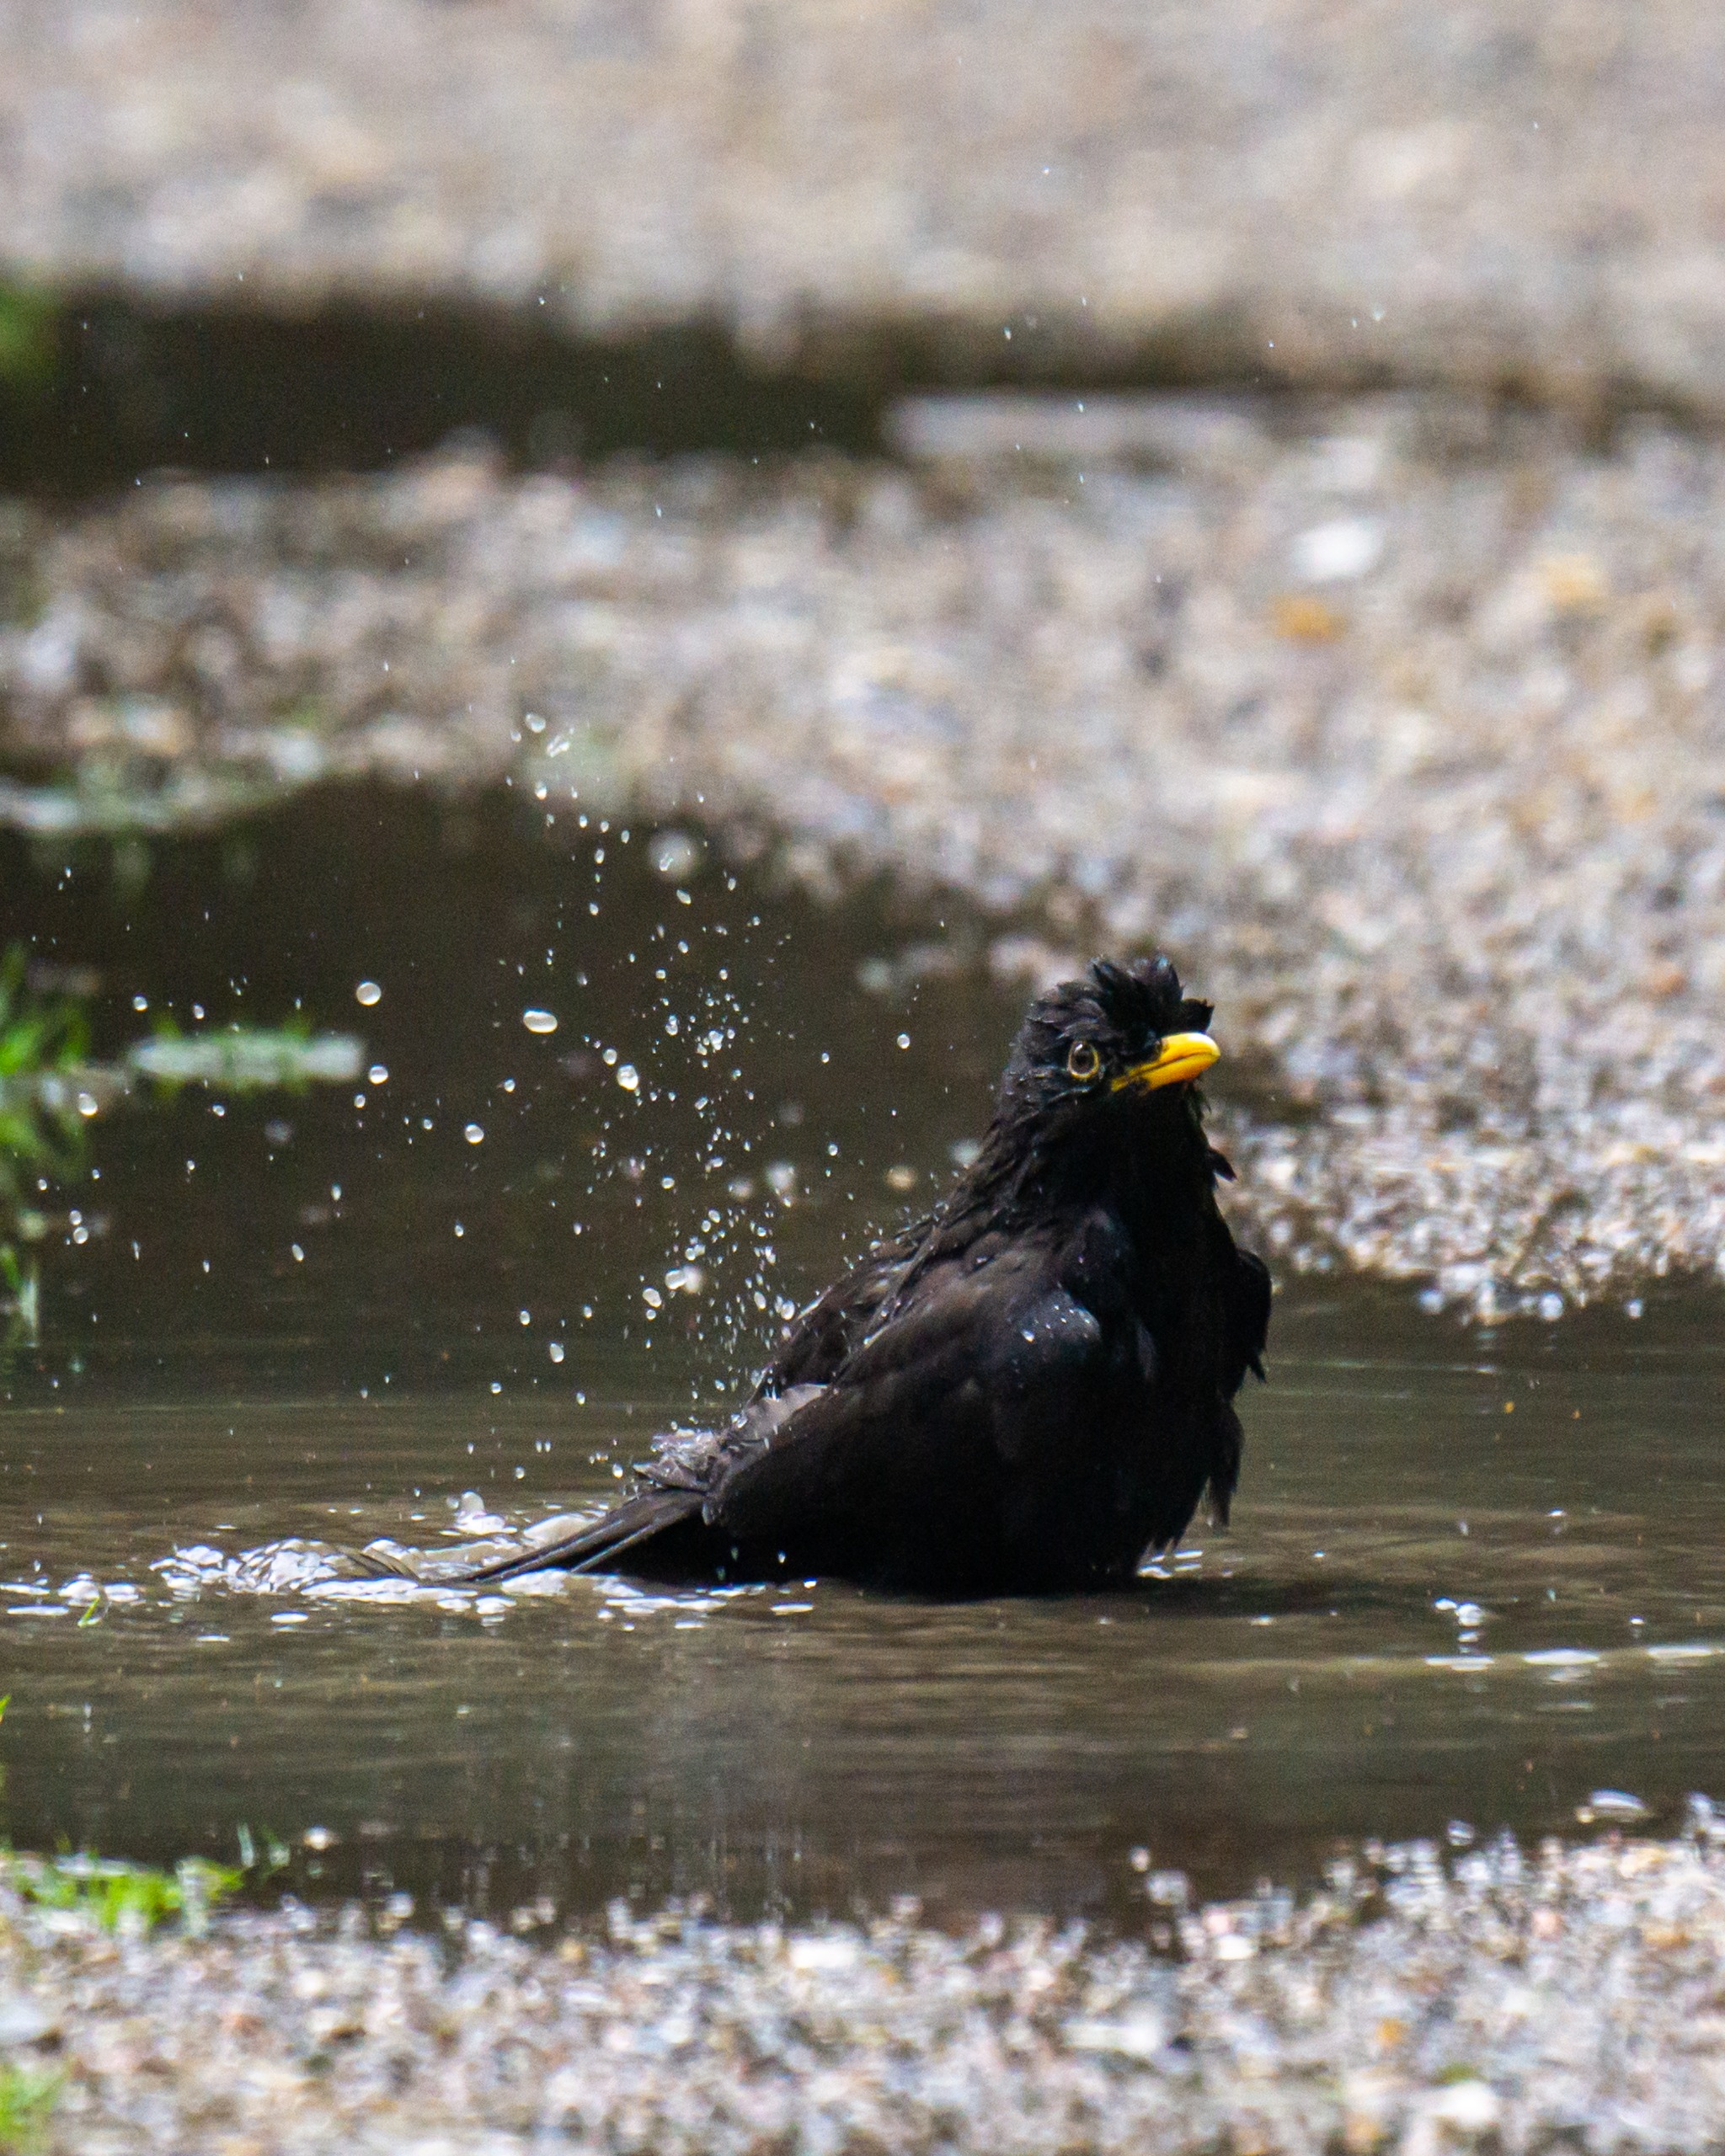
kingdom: Animalia
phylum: Chordata
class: Aves
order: Passeriformes
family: Turdidae
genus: Turdus
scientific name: Turdus merula
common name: Solsort
